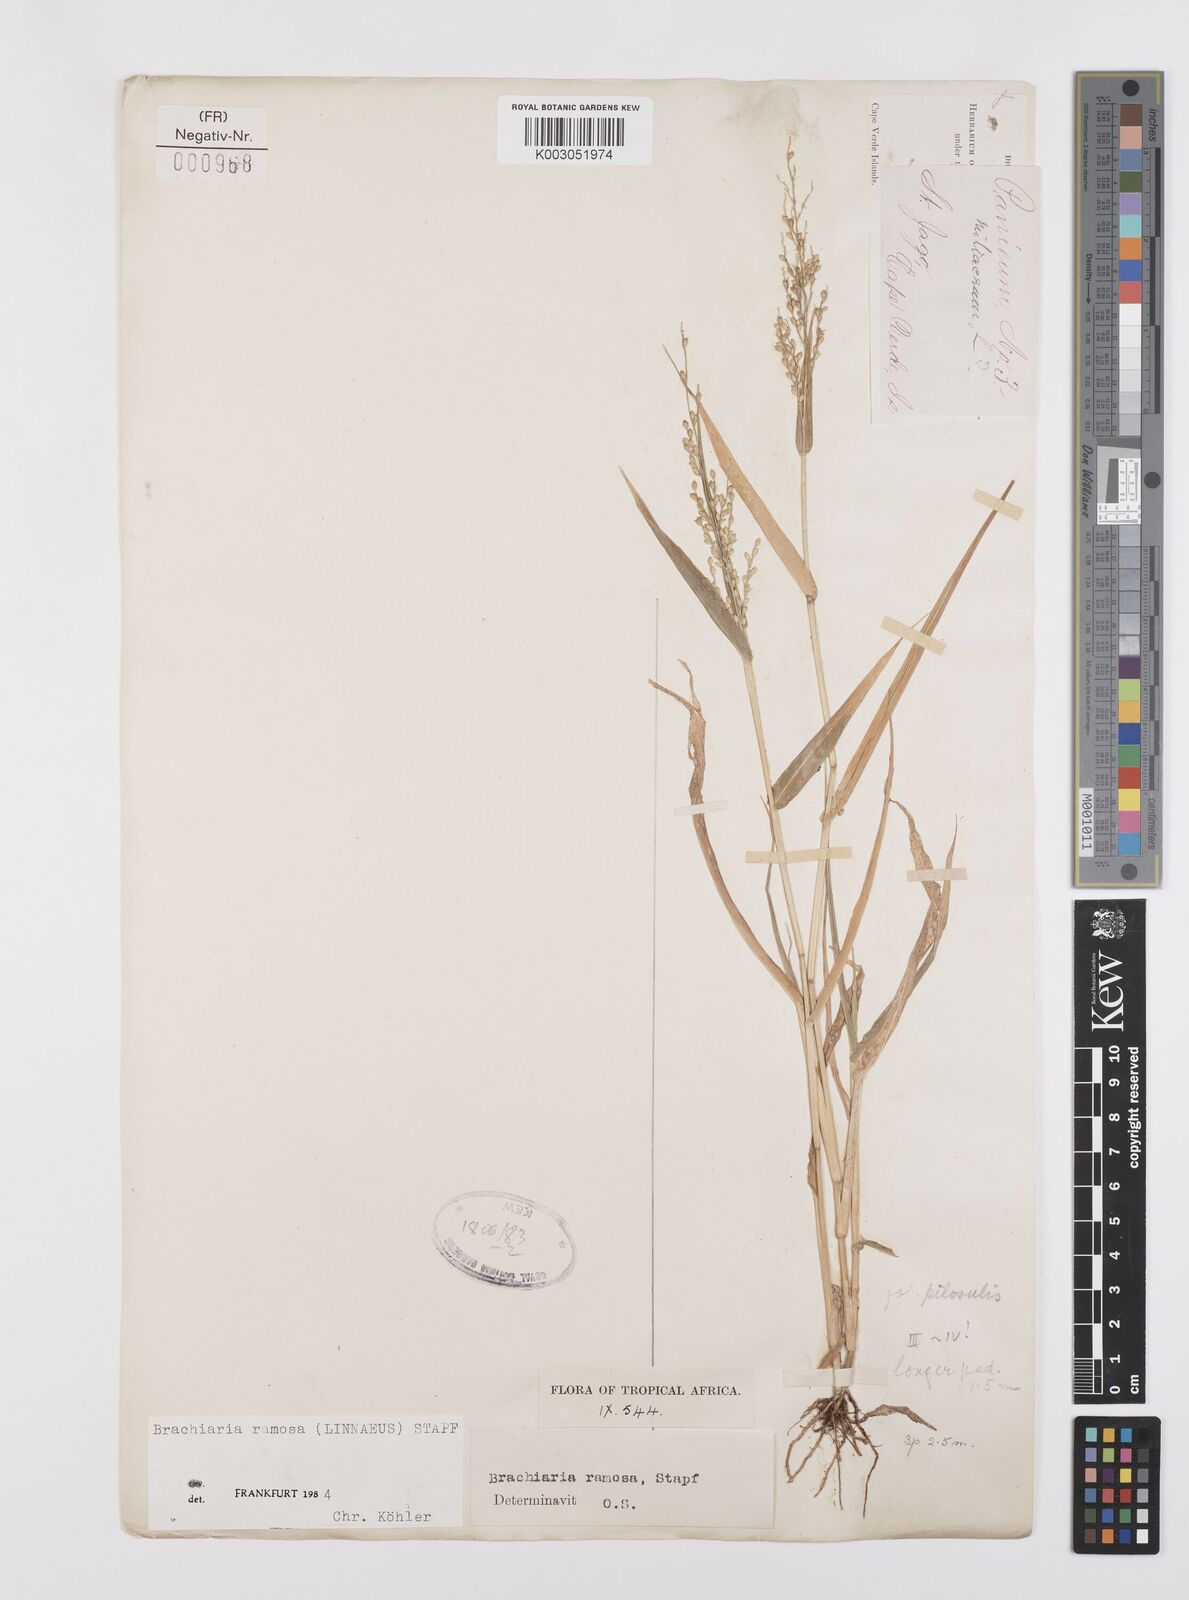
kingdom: Plantae
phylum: Tracheophyta
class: Liliopsida
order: Poales
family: Poaceae
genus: Urochloa
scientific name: Urochloa ramosa
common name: Browntop millet
